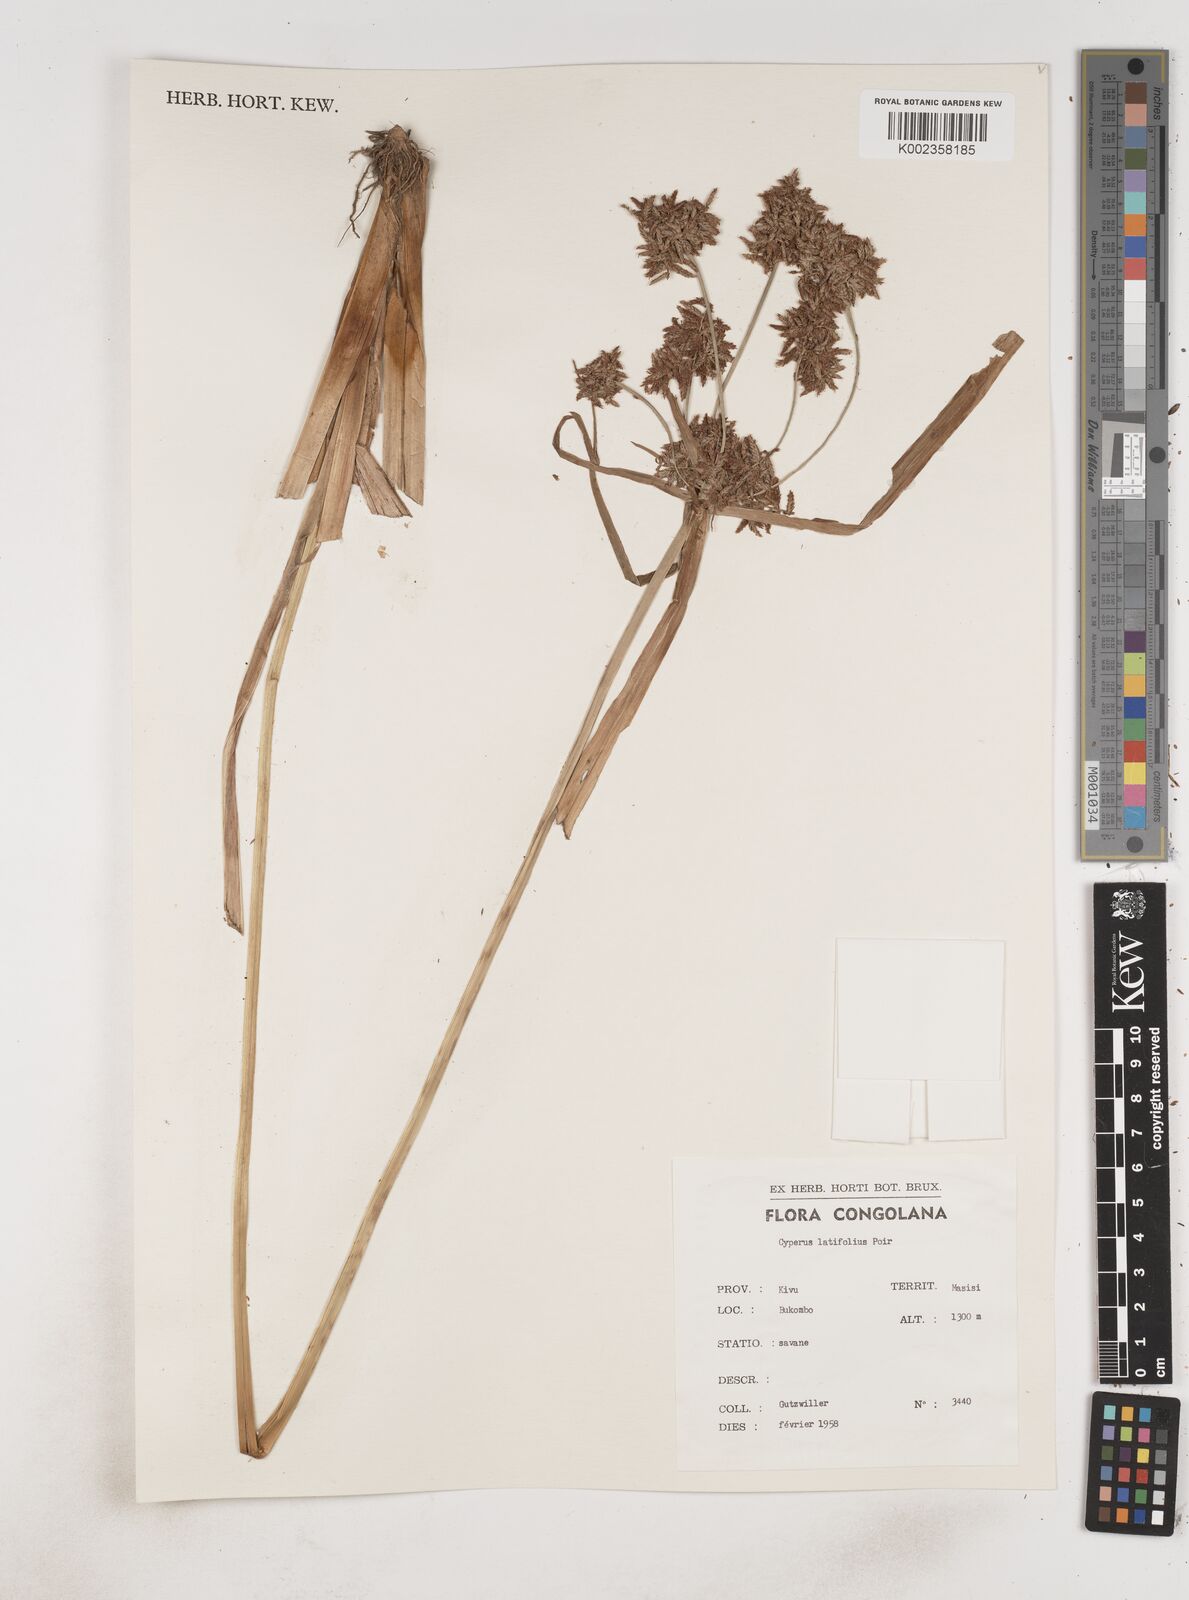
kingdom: Plantae
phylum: Tracheophyta
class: Liliopsida
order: Poales
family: Cyperaceae
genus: Cyperus
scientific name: Cyperus latifolius
